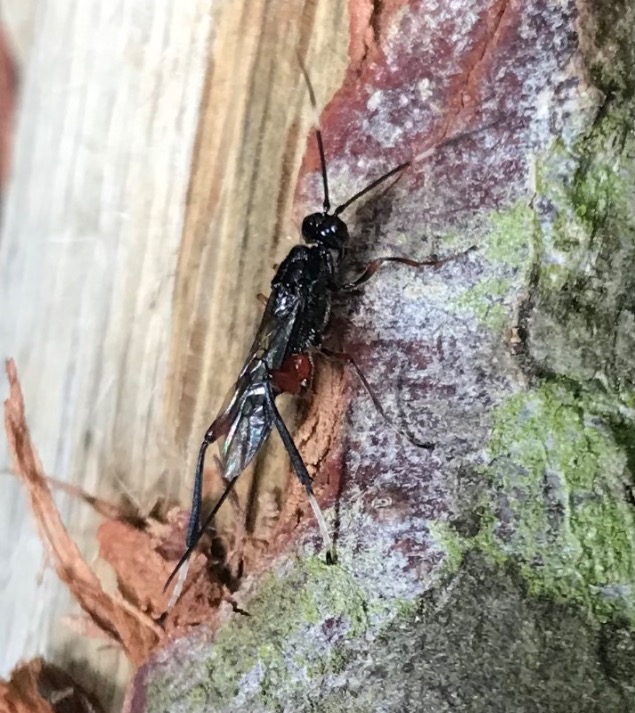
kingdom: Animalia
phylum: Arthropoda
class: Insecta
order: Hymenoptera
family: Braconidae
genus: Wroughtonia
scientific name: Wroughtonia spinator
